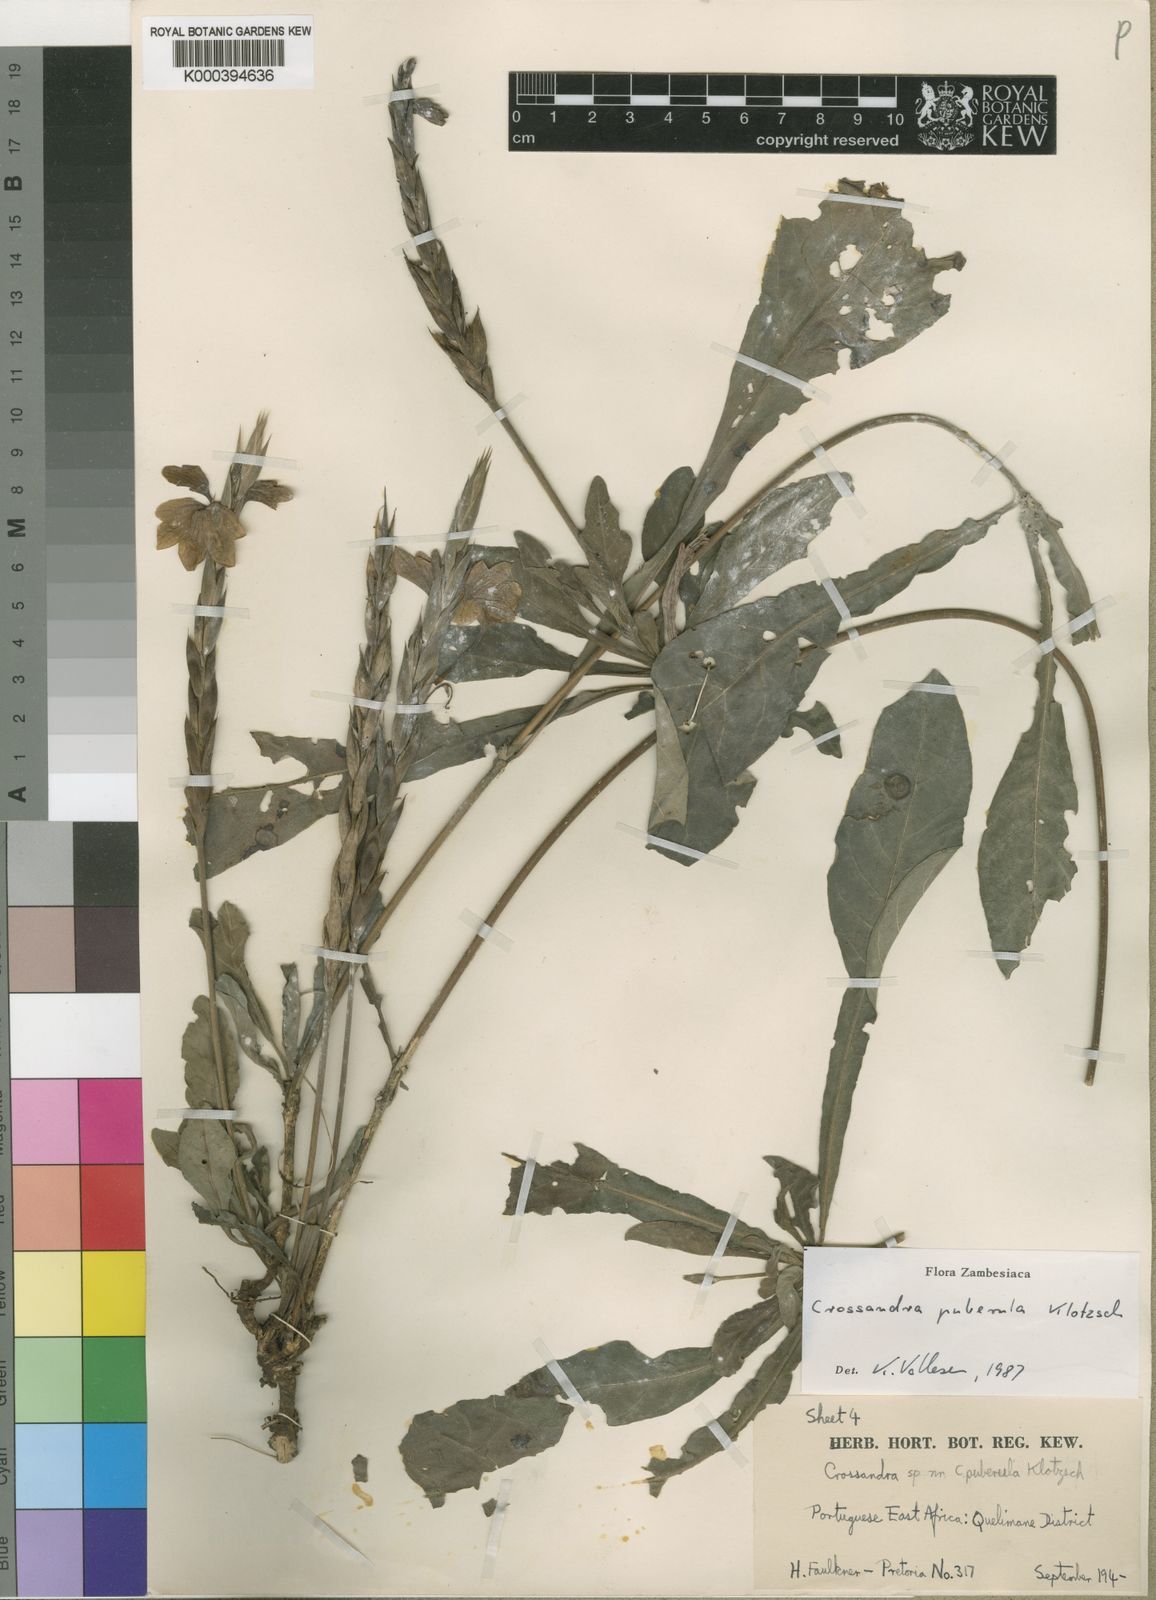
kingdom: Plantae
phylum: Tracheophyta
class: Magnoliopsida
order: Lamiales
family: Acanthaceae
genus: Crossandra
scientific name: Crossandra puberula
